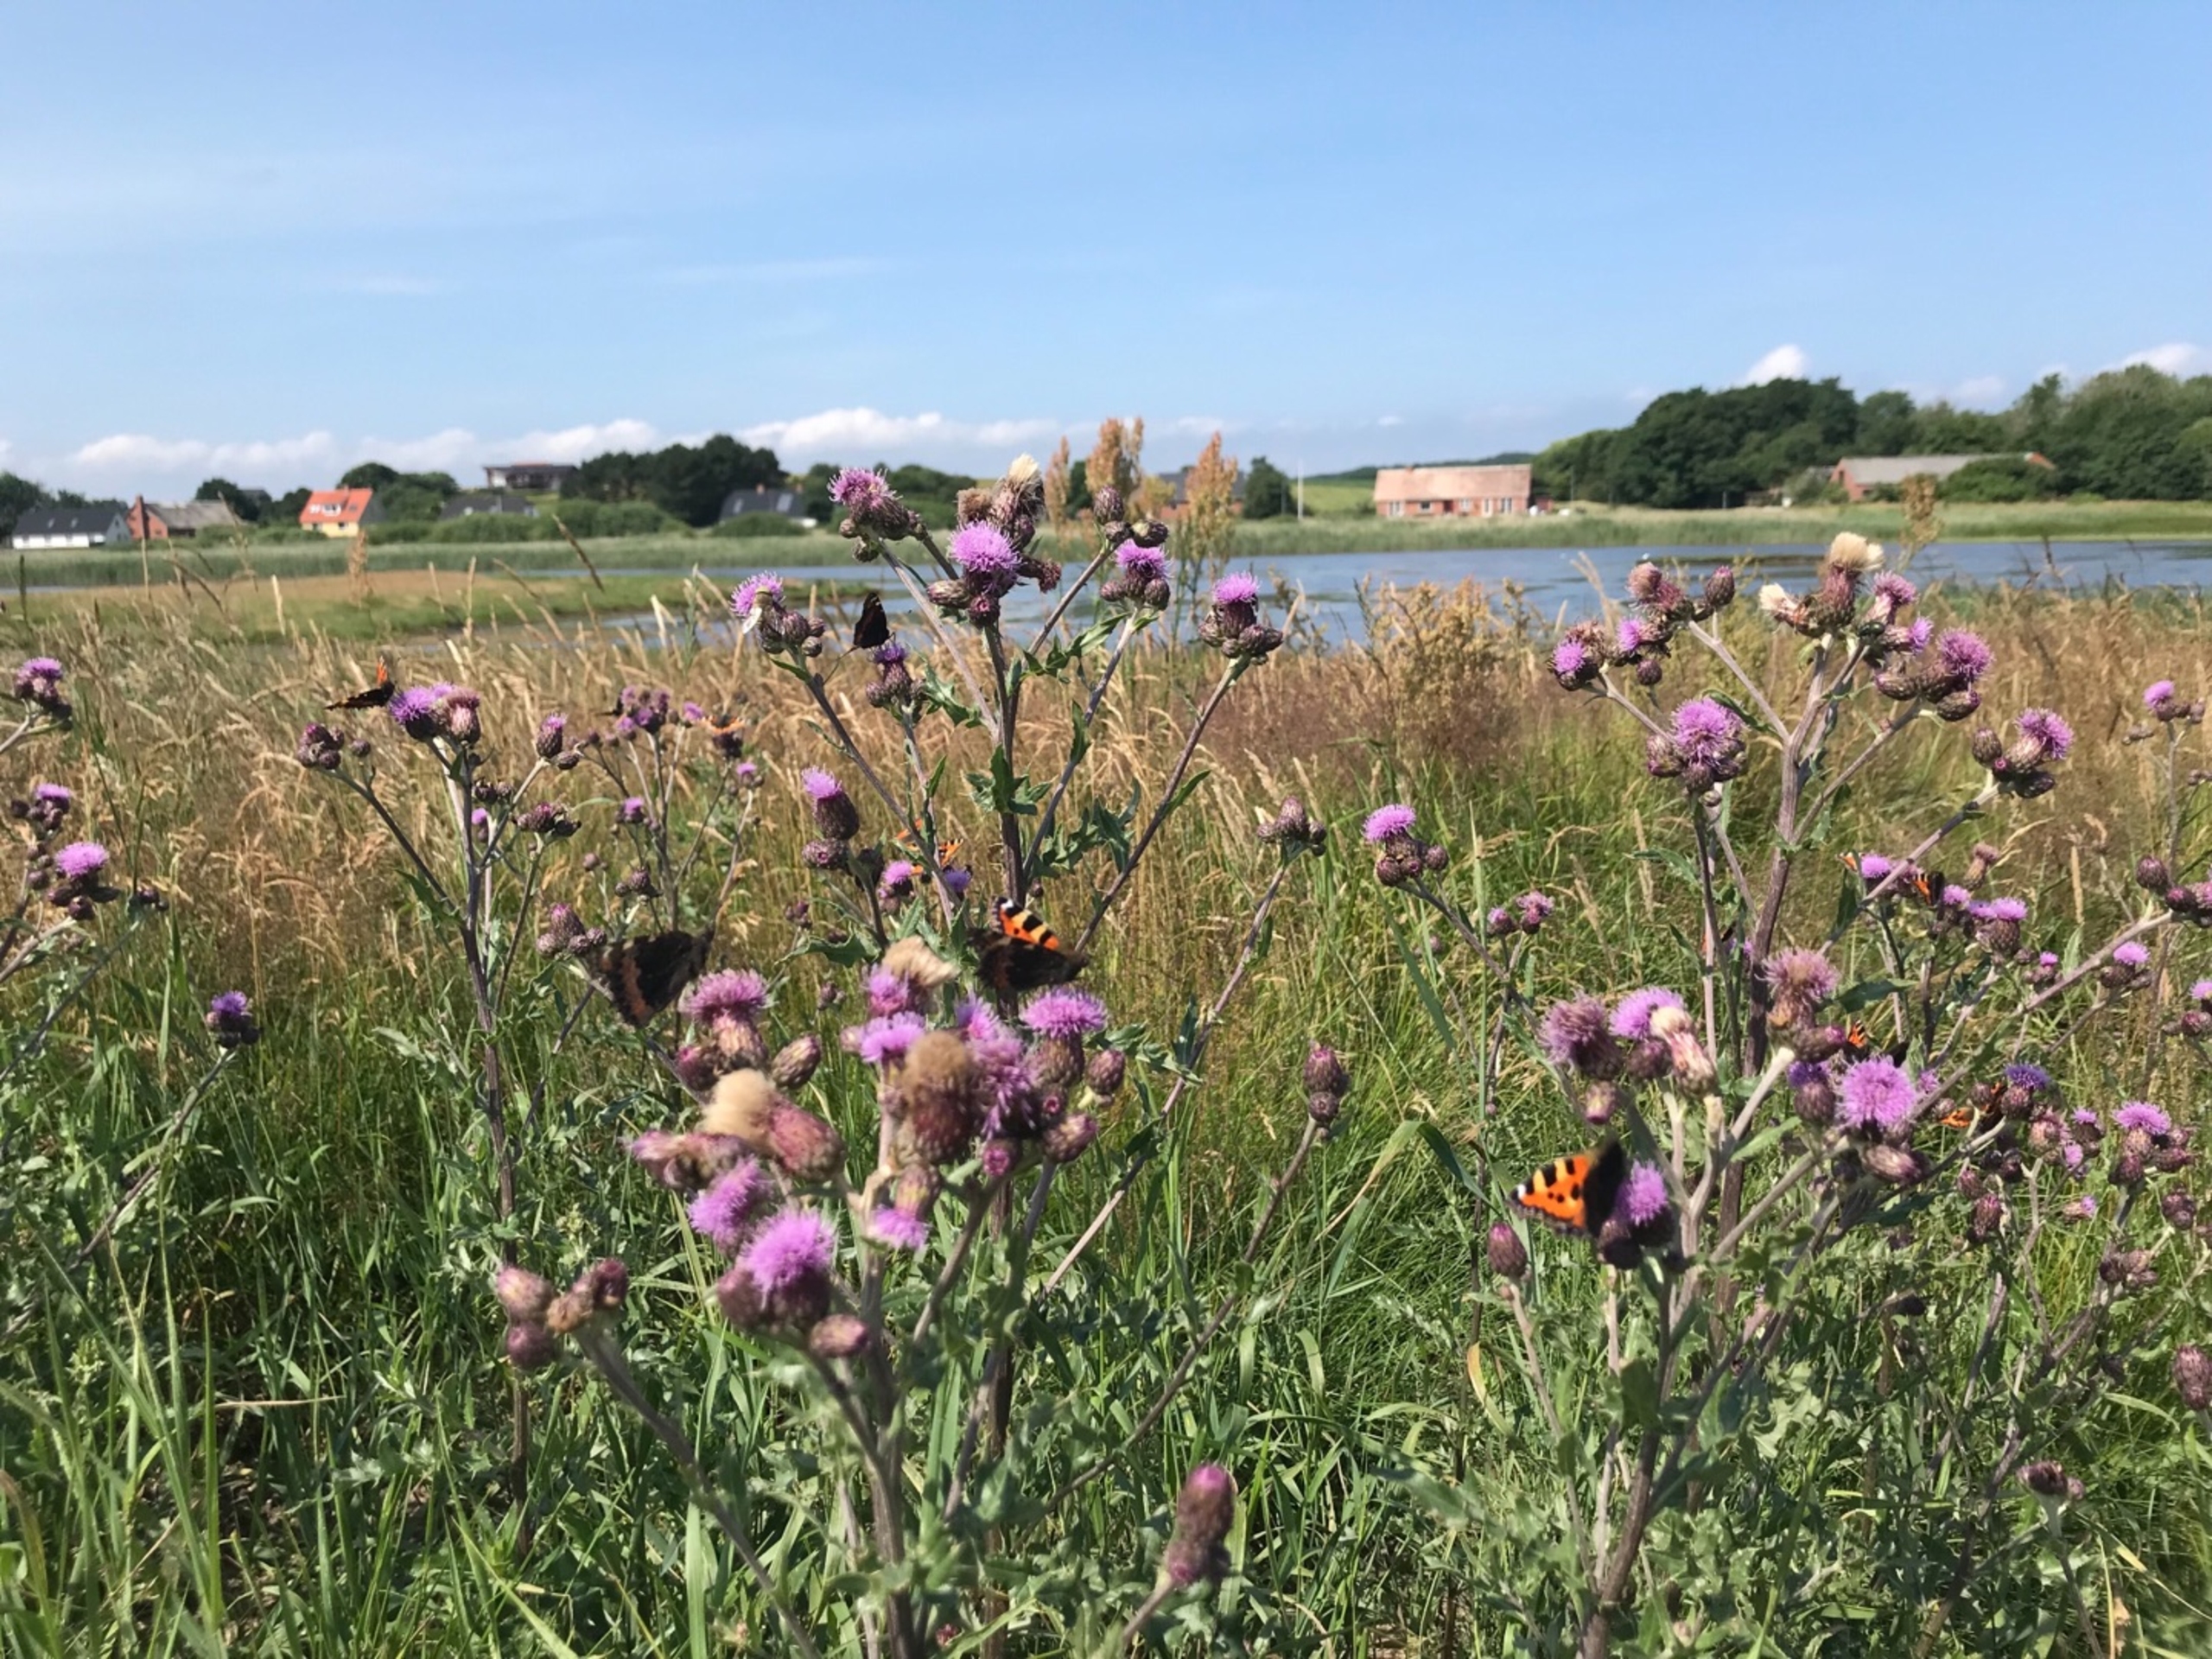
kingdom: Animalia
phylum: Arthropoda
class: Insecta
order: Lepidoptera
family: Nymphalidae
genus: Aglais
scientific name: Aglais urticae
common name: Nældens takvinge
